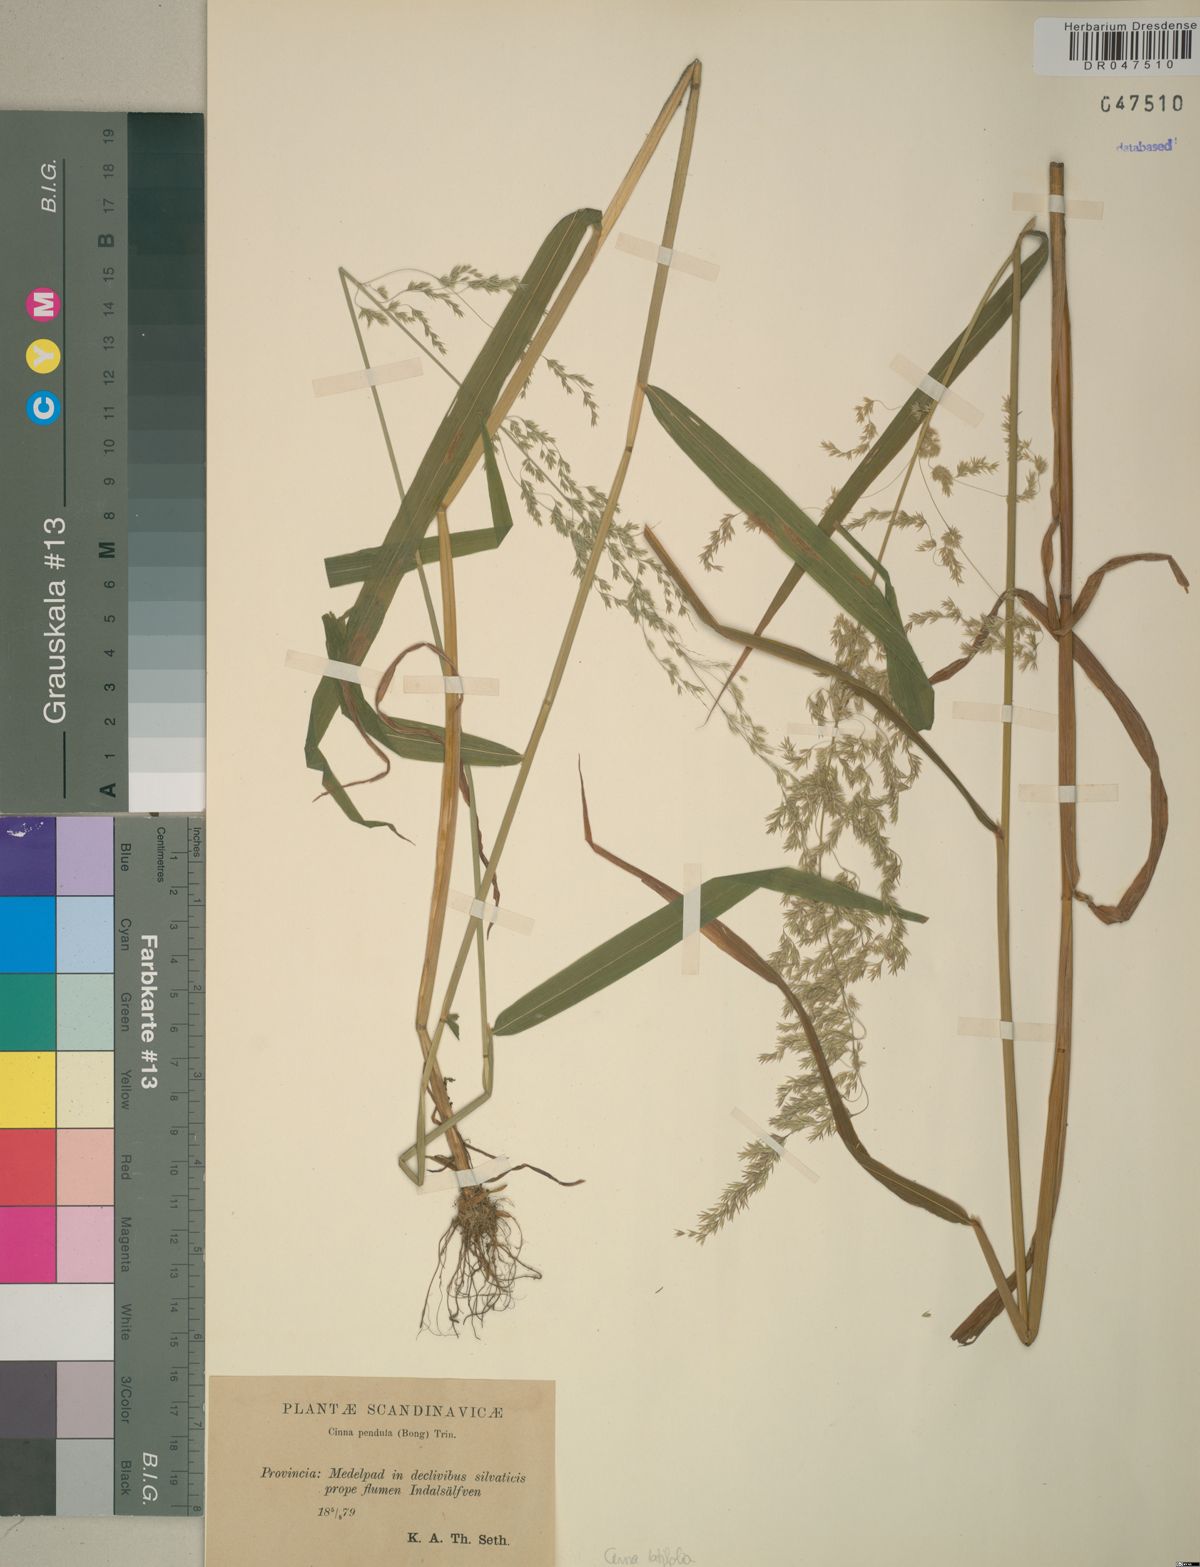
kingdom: Plantae
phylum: Tracheophyta
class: Liliopsida
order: Poales
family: Poaceae
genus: Cinna
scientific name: Cinna latifolia
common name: Drooping woodreed
